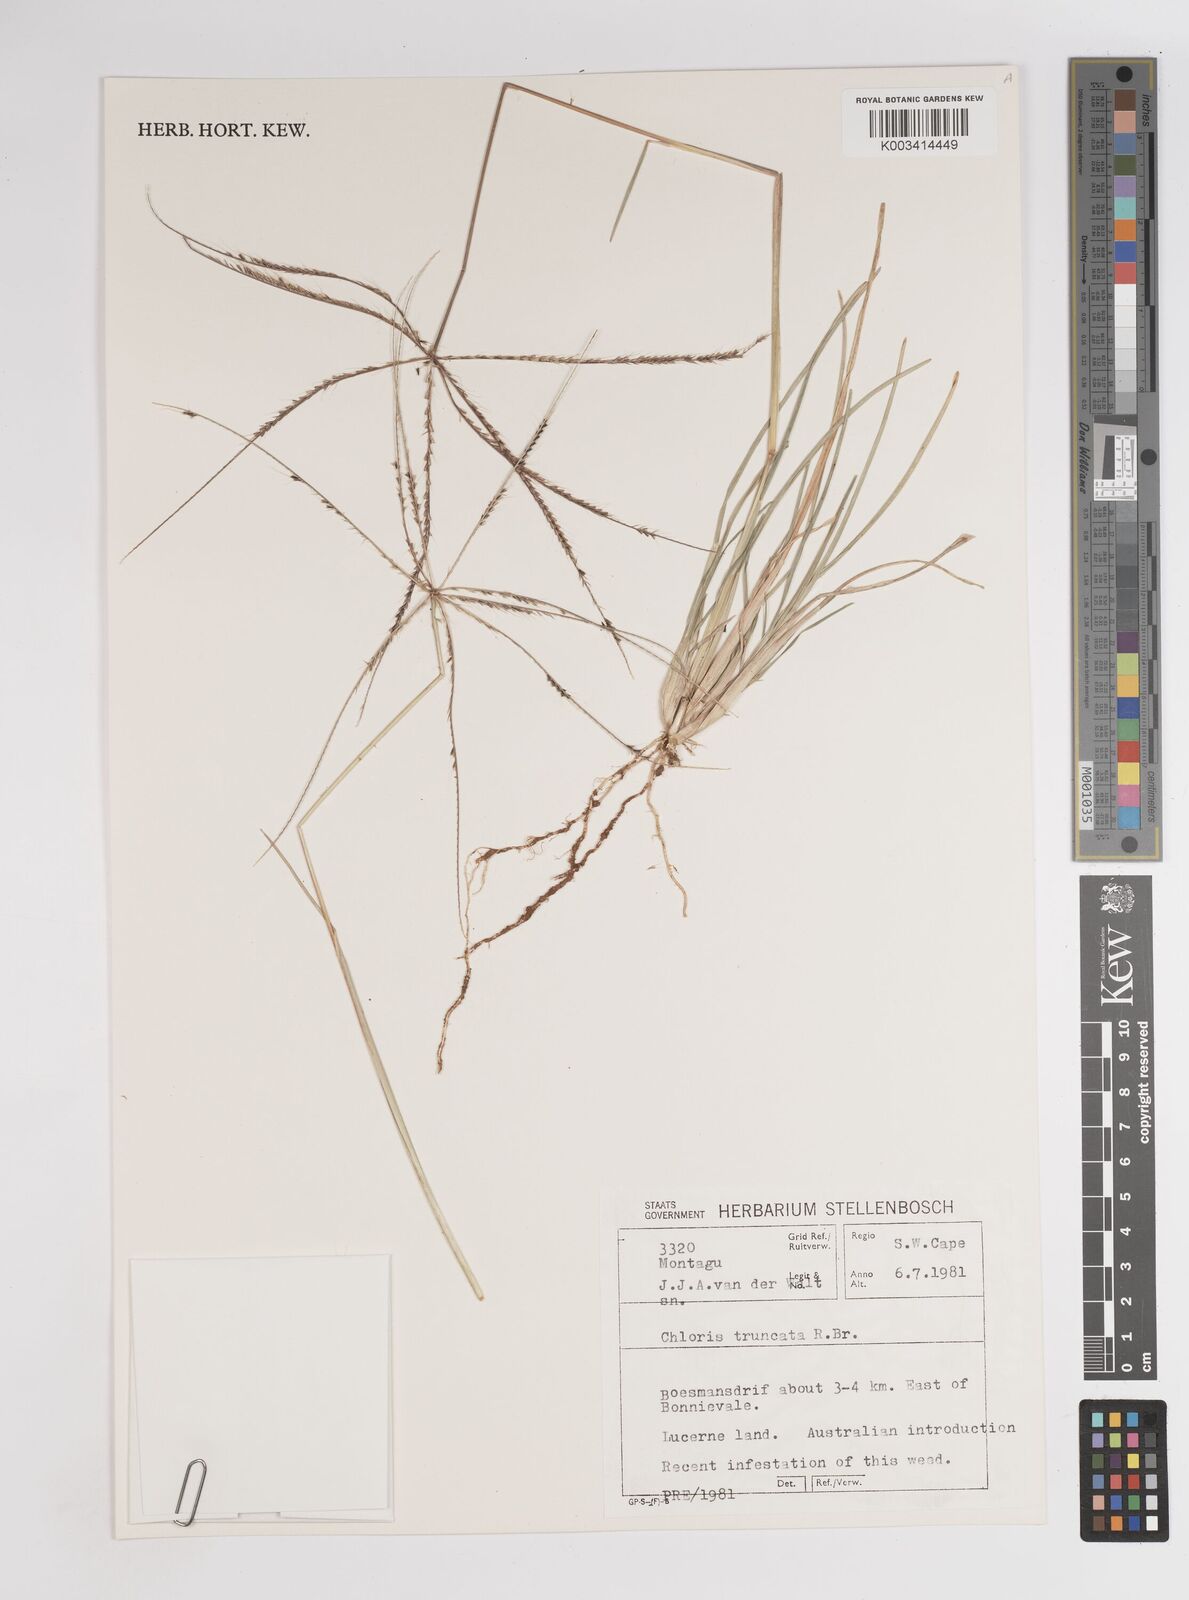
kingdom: Plantae
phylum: Tracheophyta
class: Liliopsida
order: Poales
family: Poaceae
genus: Chloris
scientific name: Chloris truncata
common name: Windmill-grass
